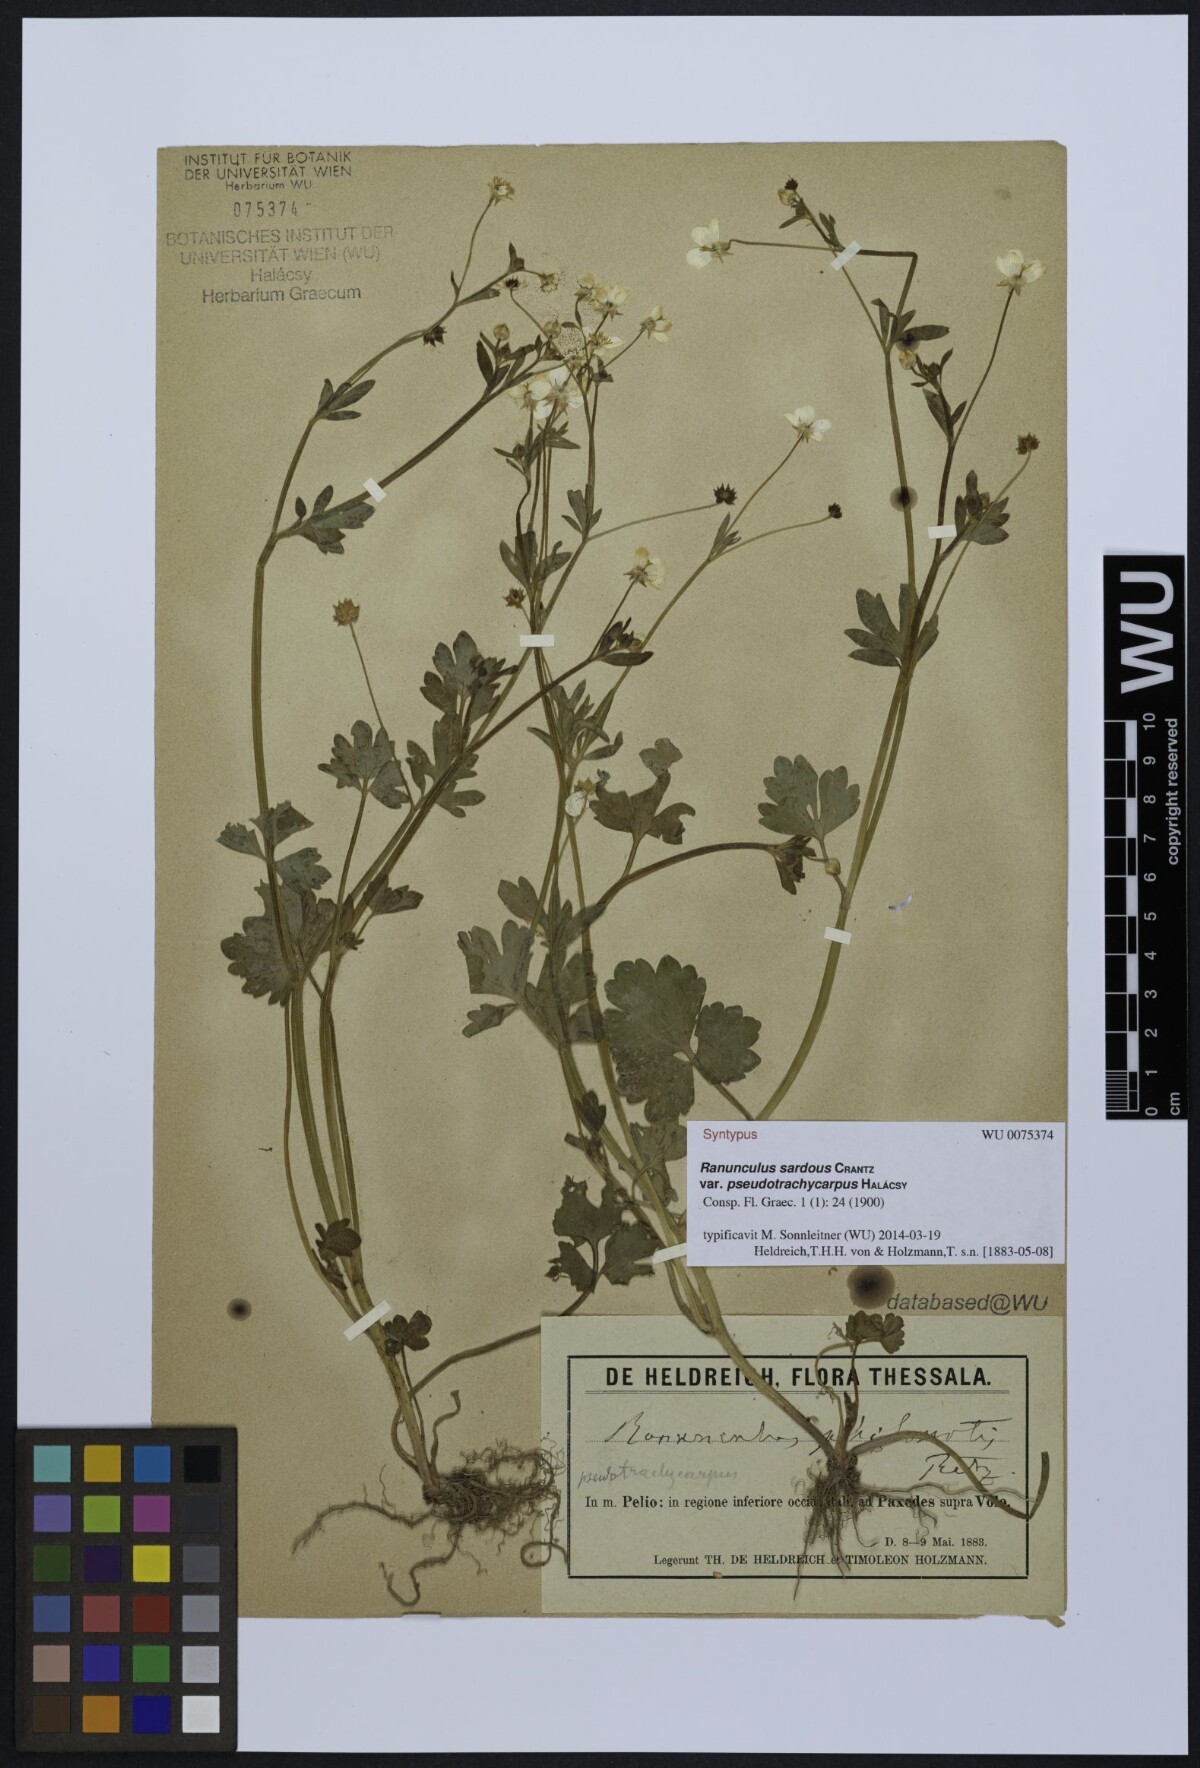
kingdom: Plantae
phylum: Tracheophyta
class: Magnoliopsida
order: Ranunculales
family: Ranunculaceae
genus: Ranunculus
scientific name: Ranunculus sardous
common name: Hairy buttercup
